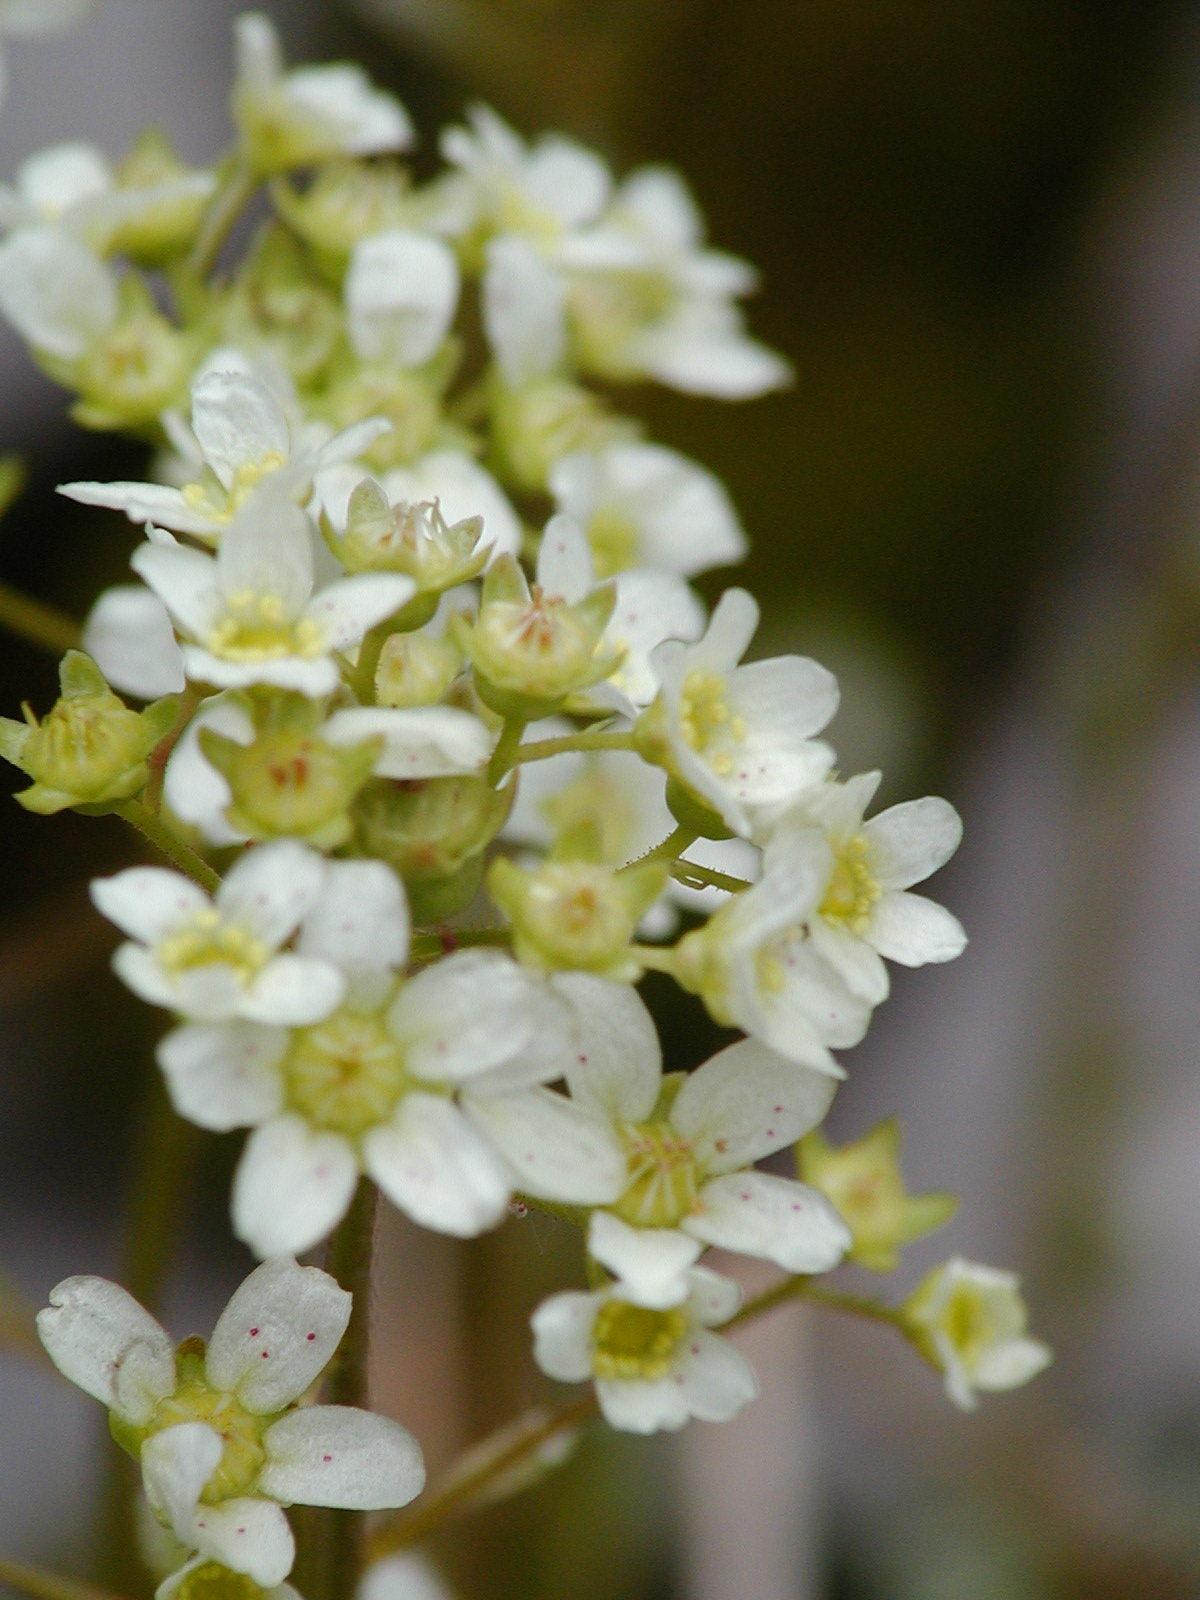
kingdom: Plantae
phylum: Tracheophyta
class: Magnoliopsida
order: Saxifragales
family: Saxifragaceae
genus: Saxifraga
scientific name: Saxifraga paniculata
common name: Livelong saxifrage
